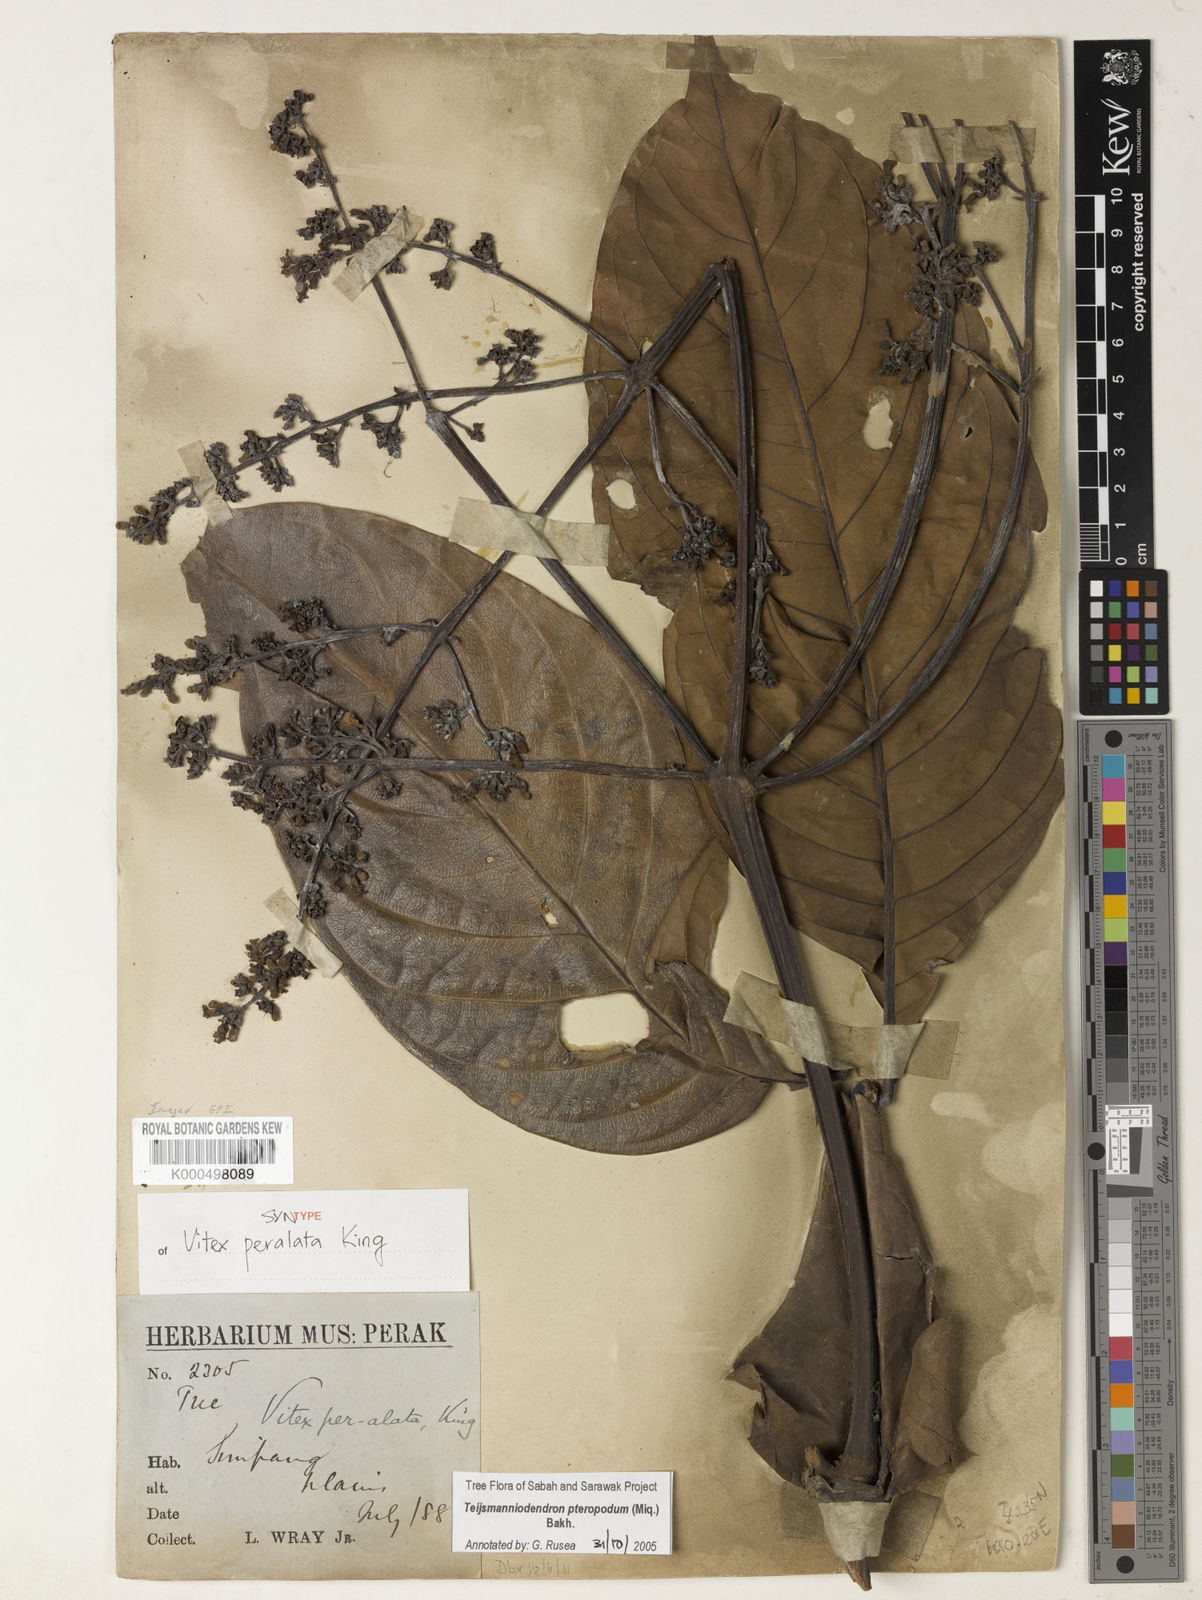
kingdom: Plantae
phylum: Tracheophyta
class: Magnoliopsida
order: Lamiales
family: Lamiaceae
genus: Teijsmanniodendron
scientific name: Teijsmanniodendron pteropodum
